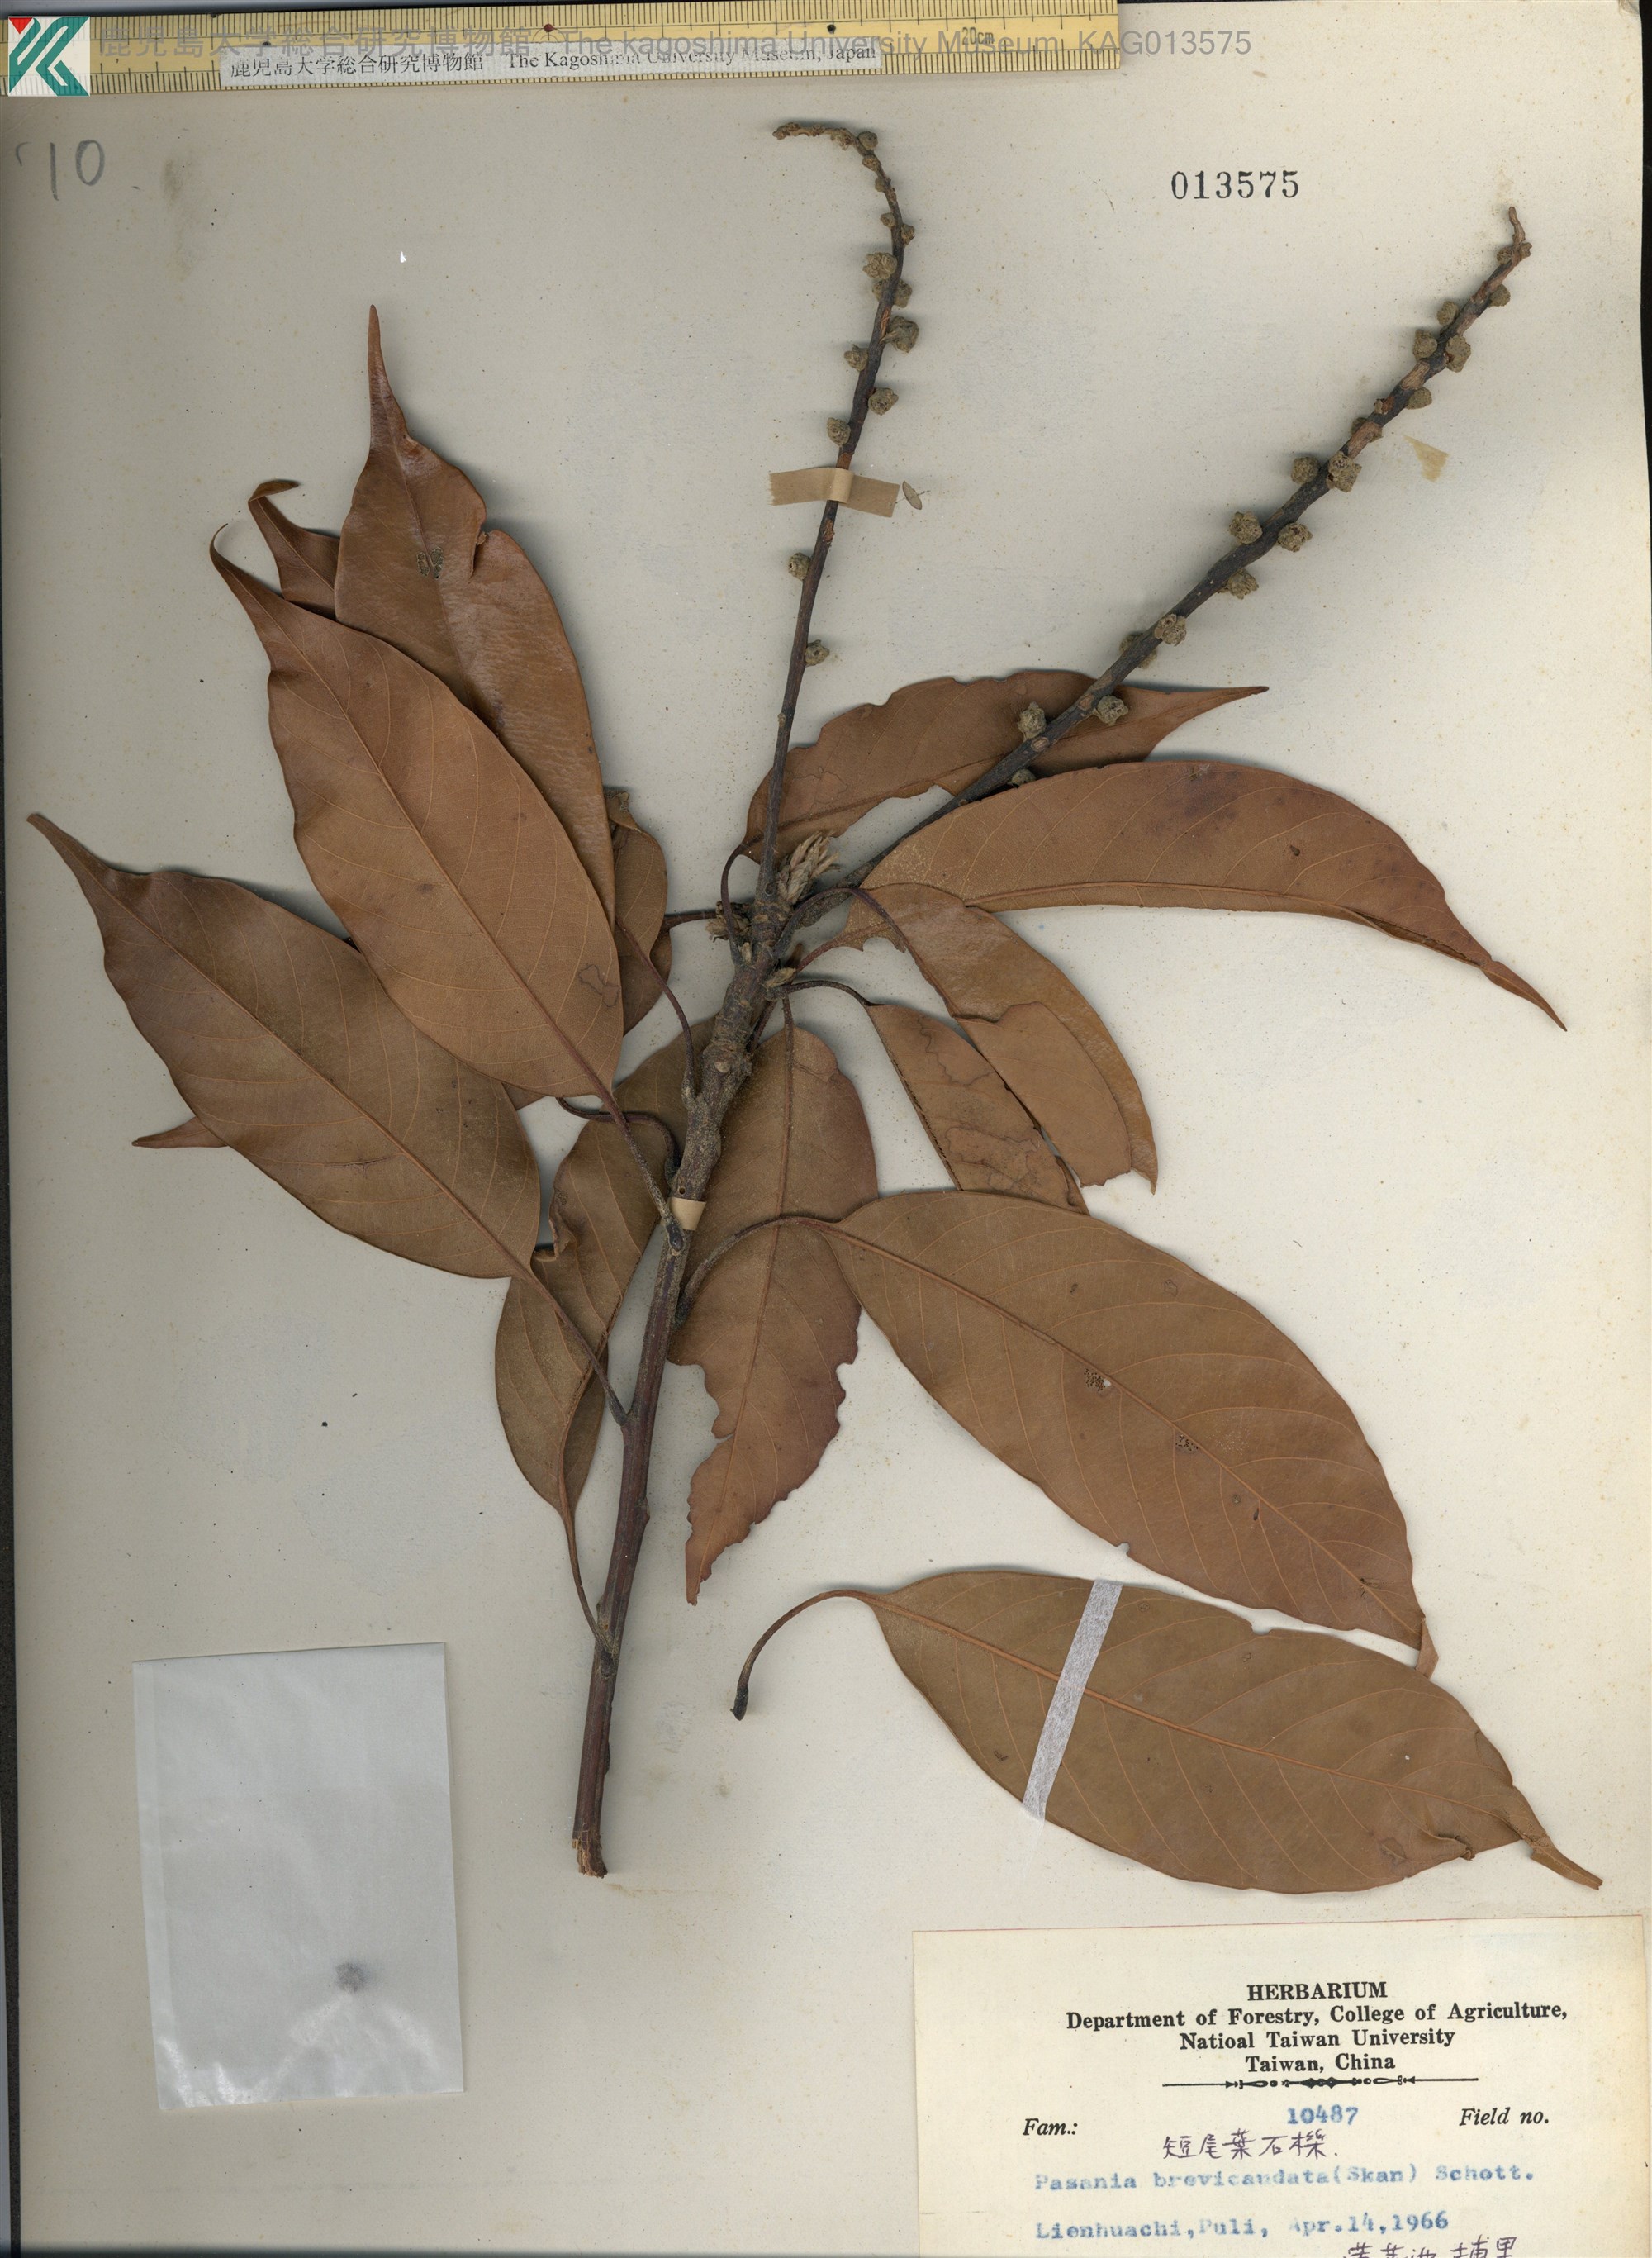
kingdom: Plantae
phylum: Tracheophyta
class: Magnoliopsida
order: Fagales
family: Fagaceae
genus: Lithocarpus
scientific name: Lithocarpus brevicaudatus
